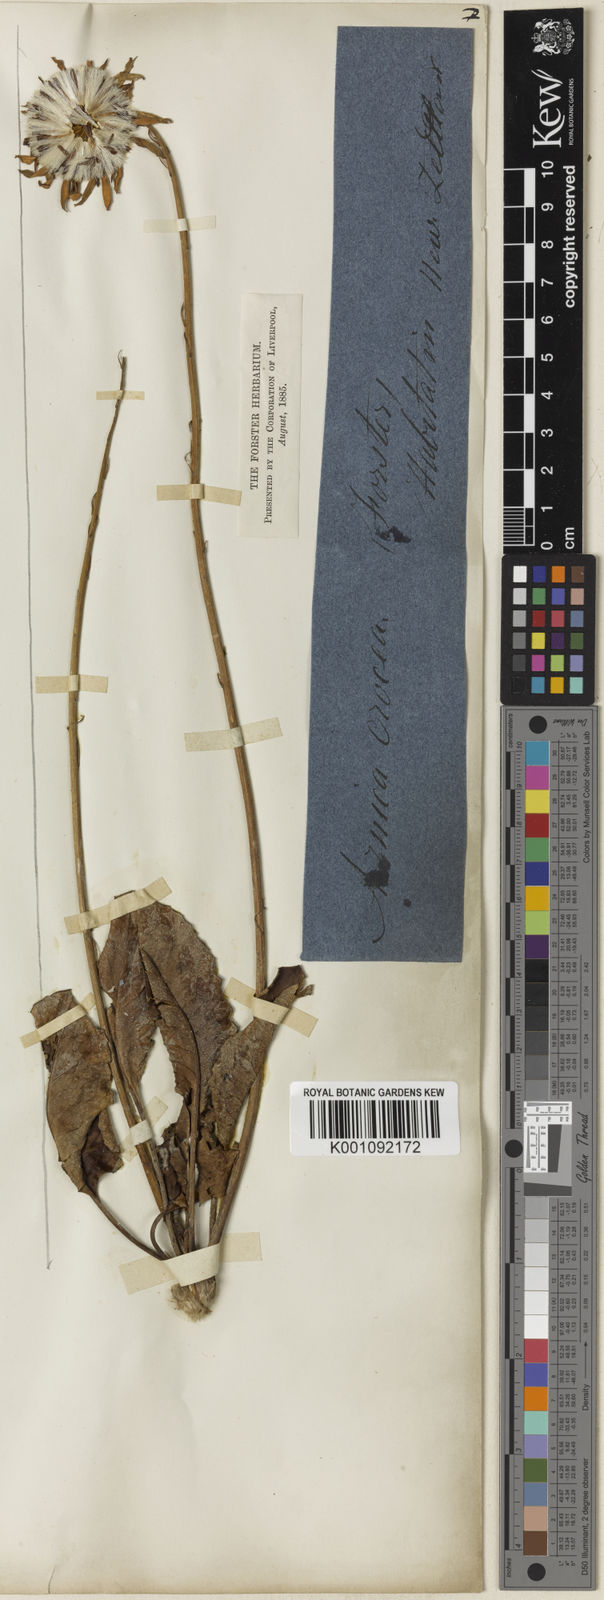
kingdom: Plantae
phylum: Tracheophyta
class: Magnoliopsida
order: Asterales
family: Asteraceae
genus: Arnica
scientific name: Arnica mollis
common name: Hairy arnica
